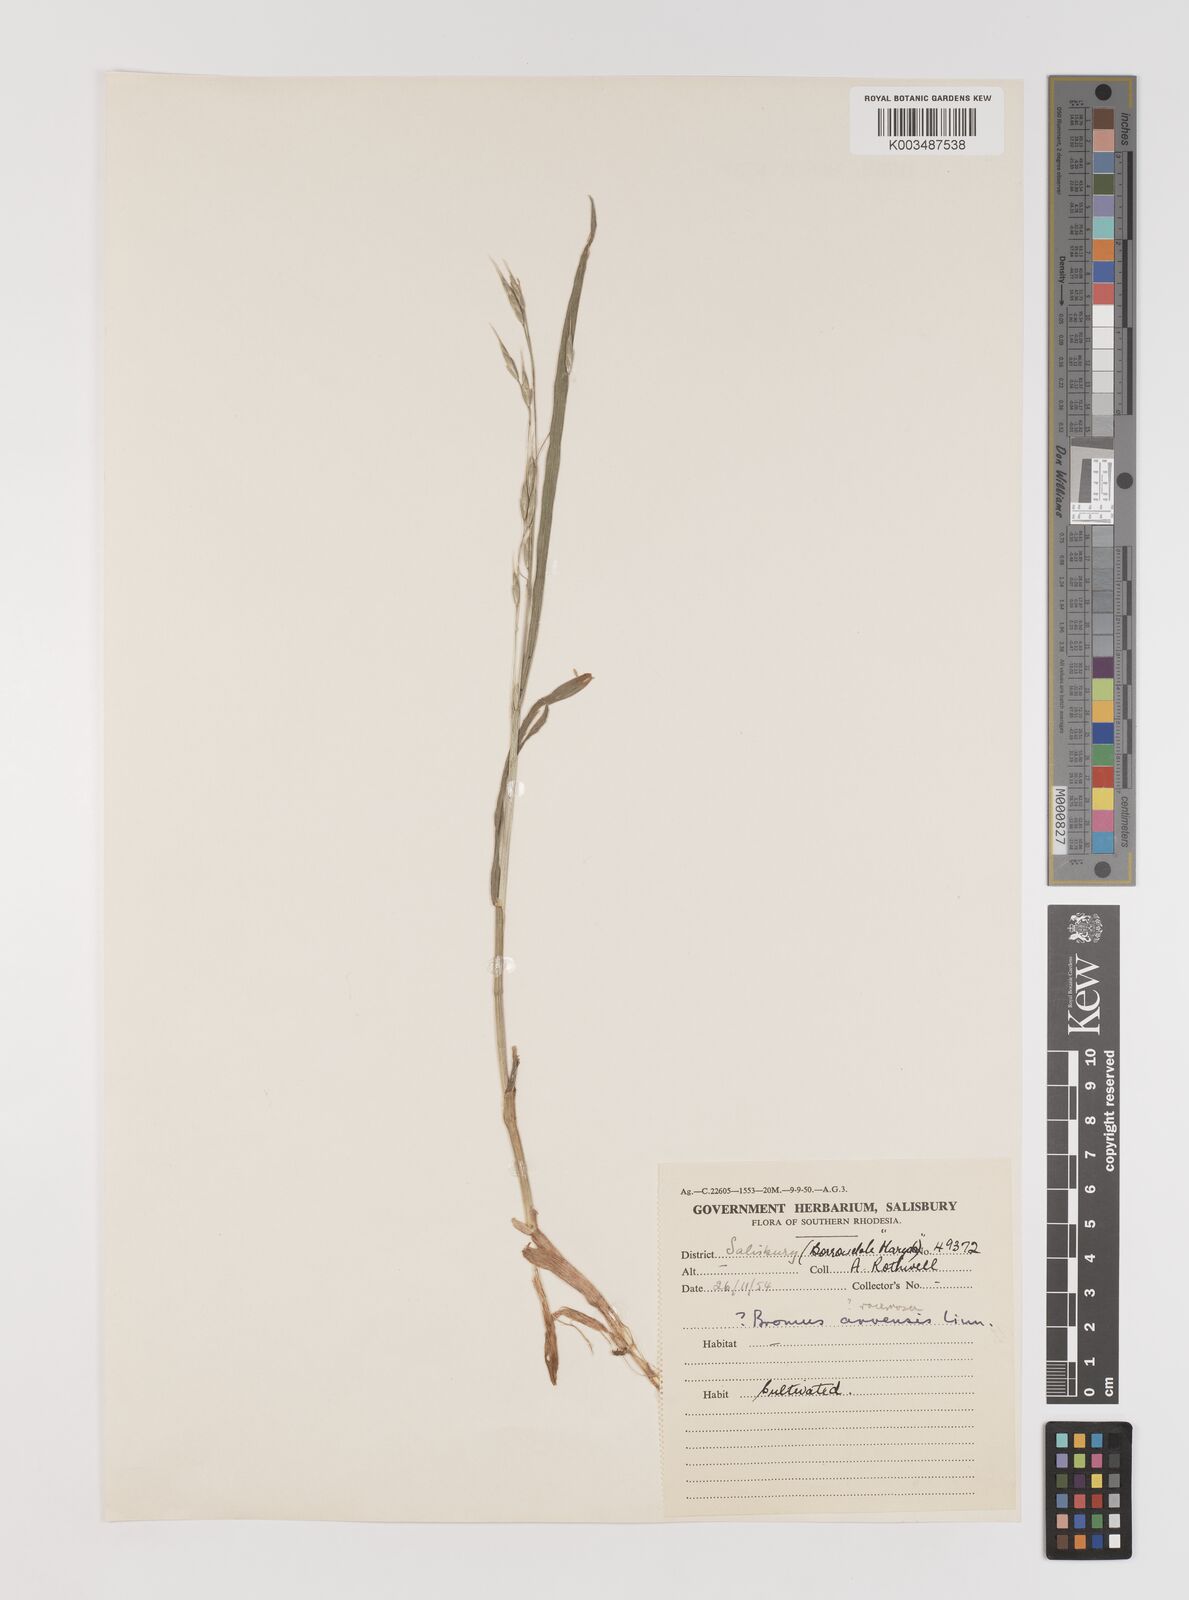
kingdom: Plantae
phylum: Tracheophyta
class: Liliopsida
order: Poales
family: Poaceae
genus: Bromus
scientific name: Bromus racemosus
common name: Bald brome
